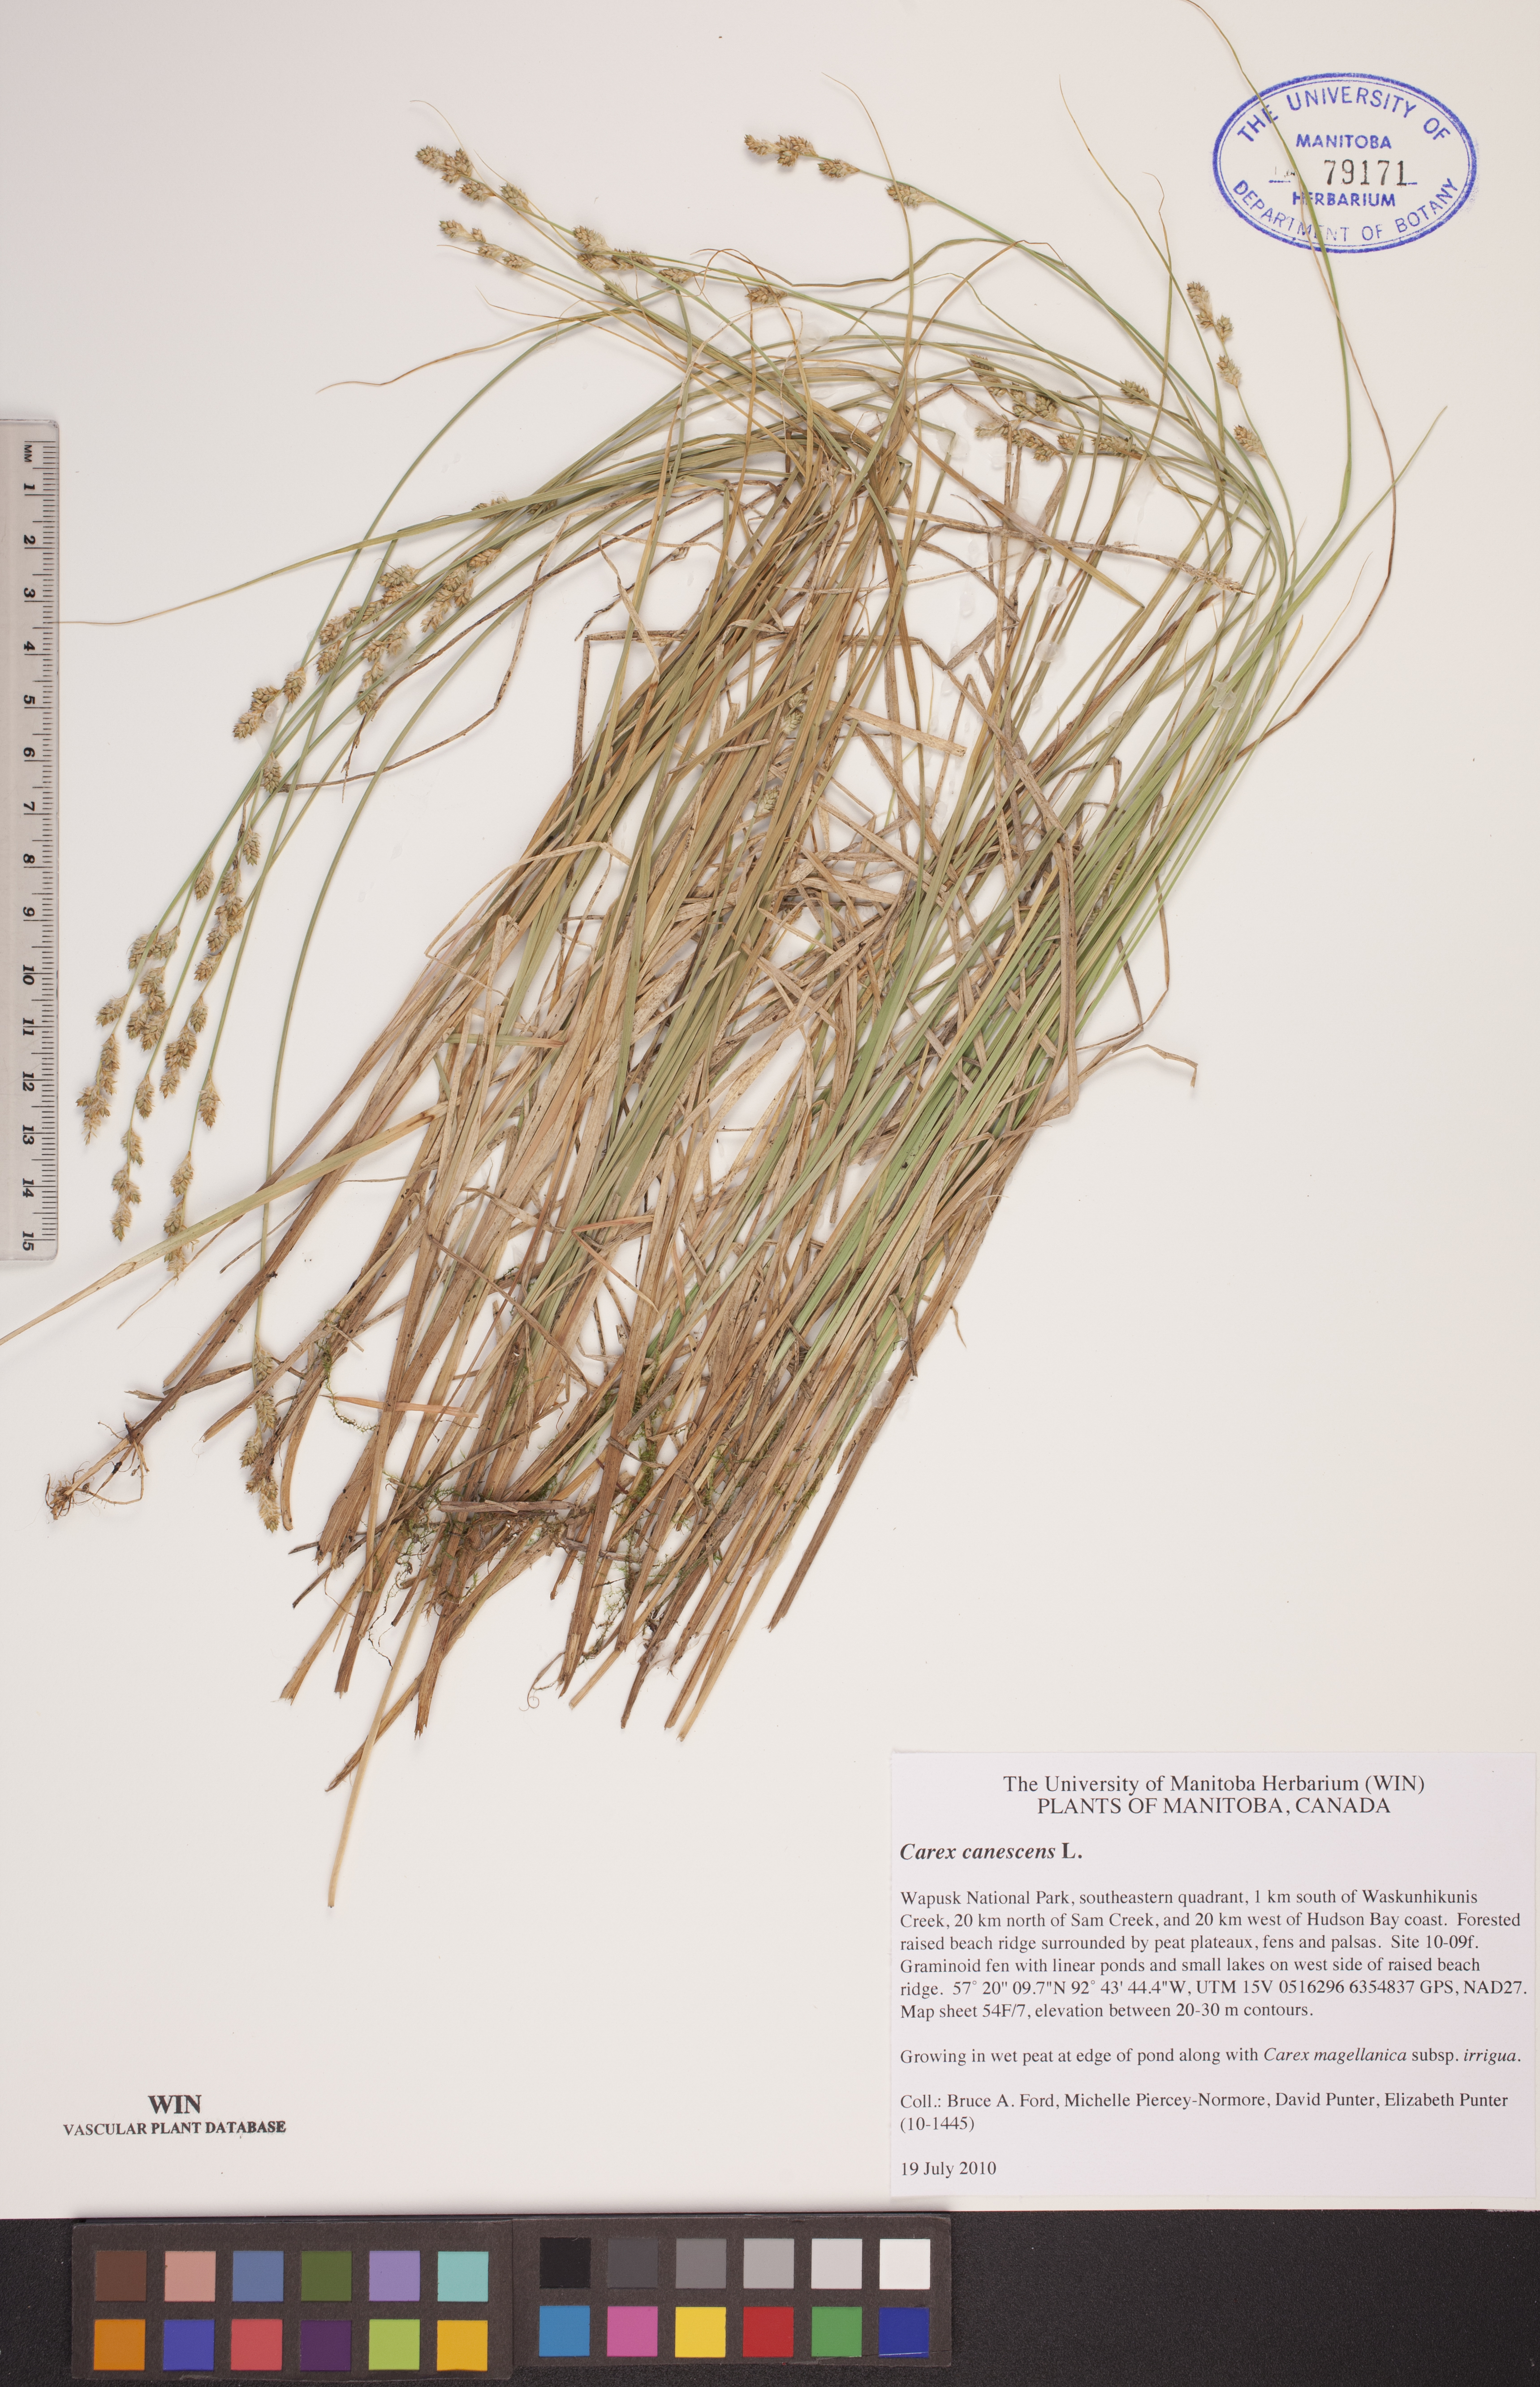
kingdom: Plantae
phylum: Tracheophyta
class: Liliopsida
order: Poales
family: Cyperaceae
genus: Carex
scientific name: Carex canescens
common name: White sedge
